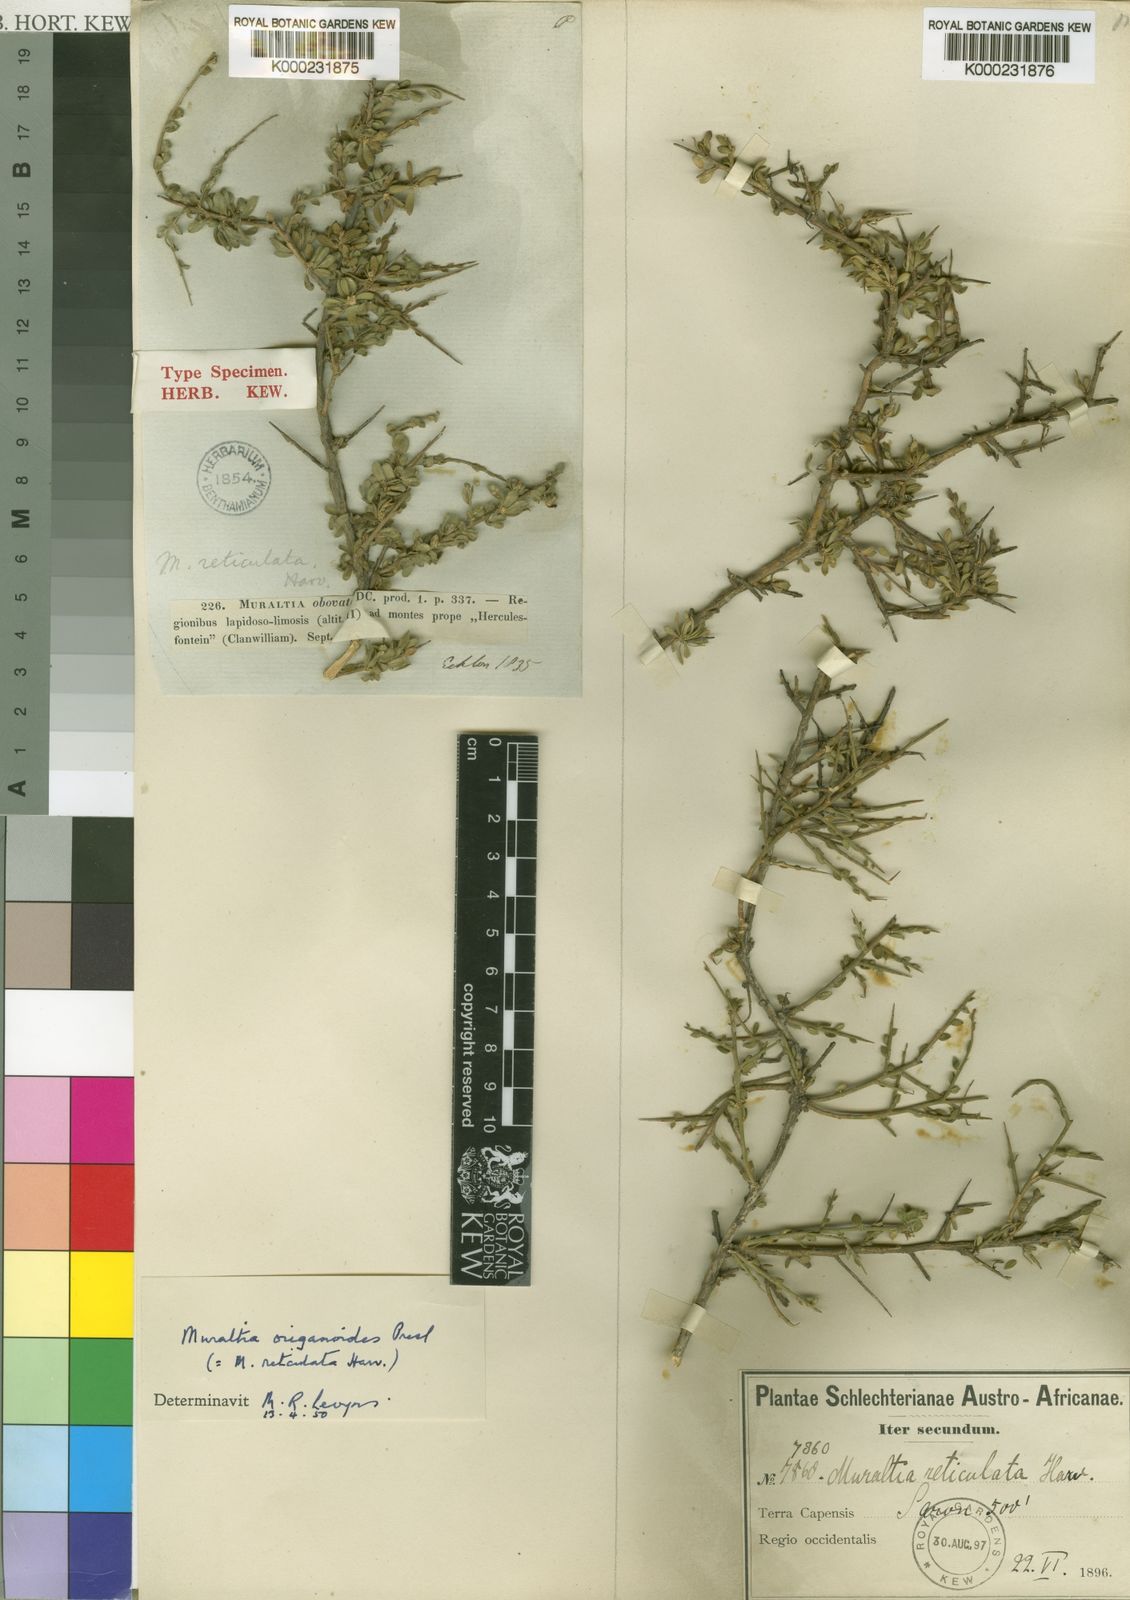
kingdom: Plantae
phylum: Tracheophyta
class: Magnoliopsida
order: Fabales
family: Polygalaceae
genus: Muraltia
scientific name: Muraltia origanoides
